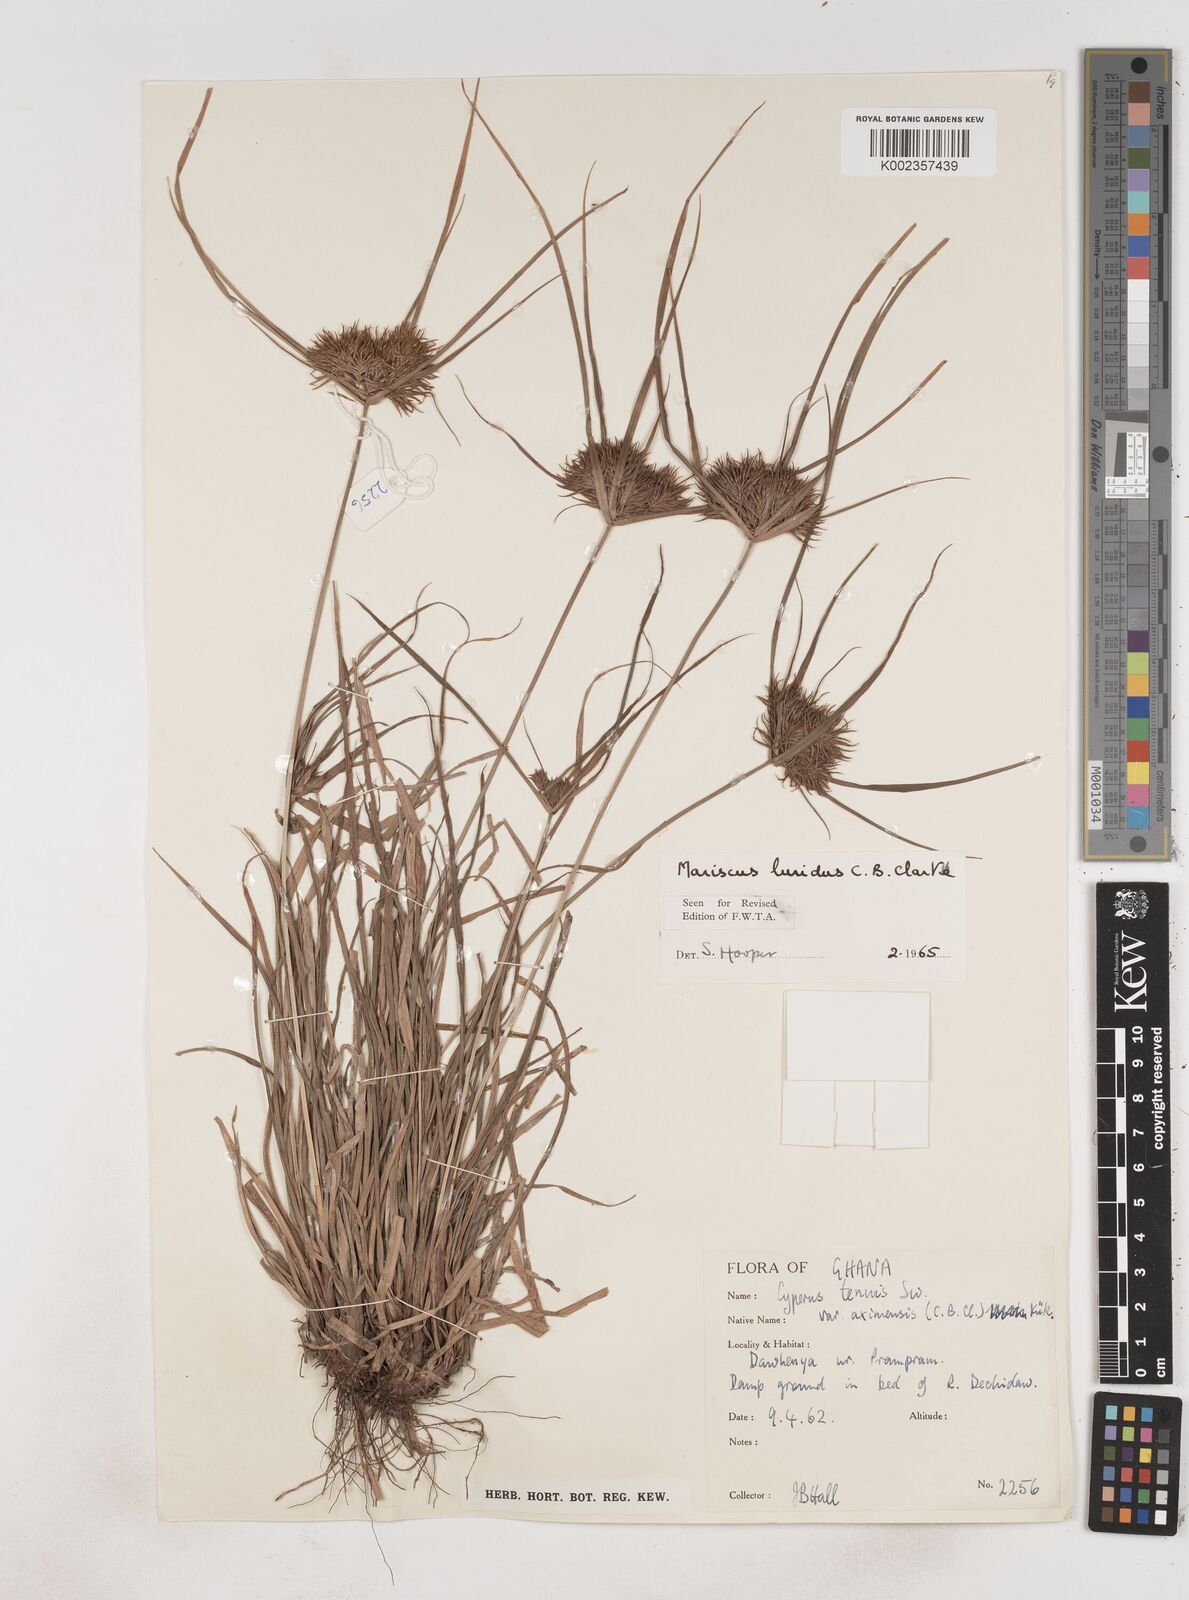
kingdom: Plantae
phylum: Tracheophyta
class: Liliopsida
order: Poales
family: Cyperaceae
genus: Cyperus
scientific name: Cyperus tenuis
